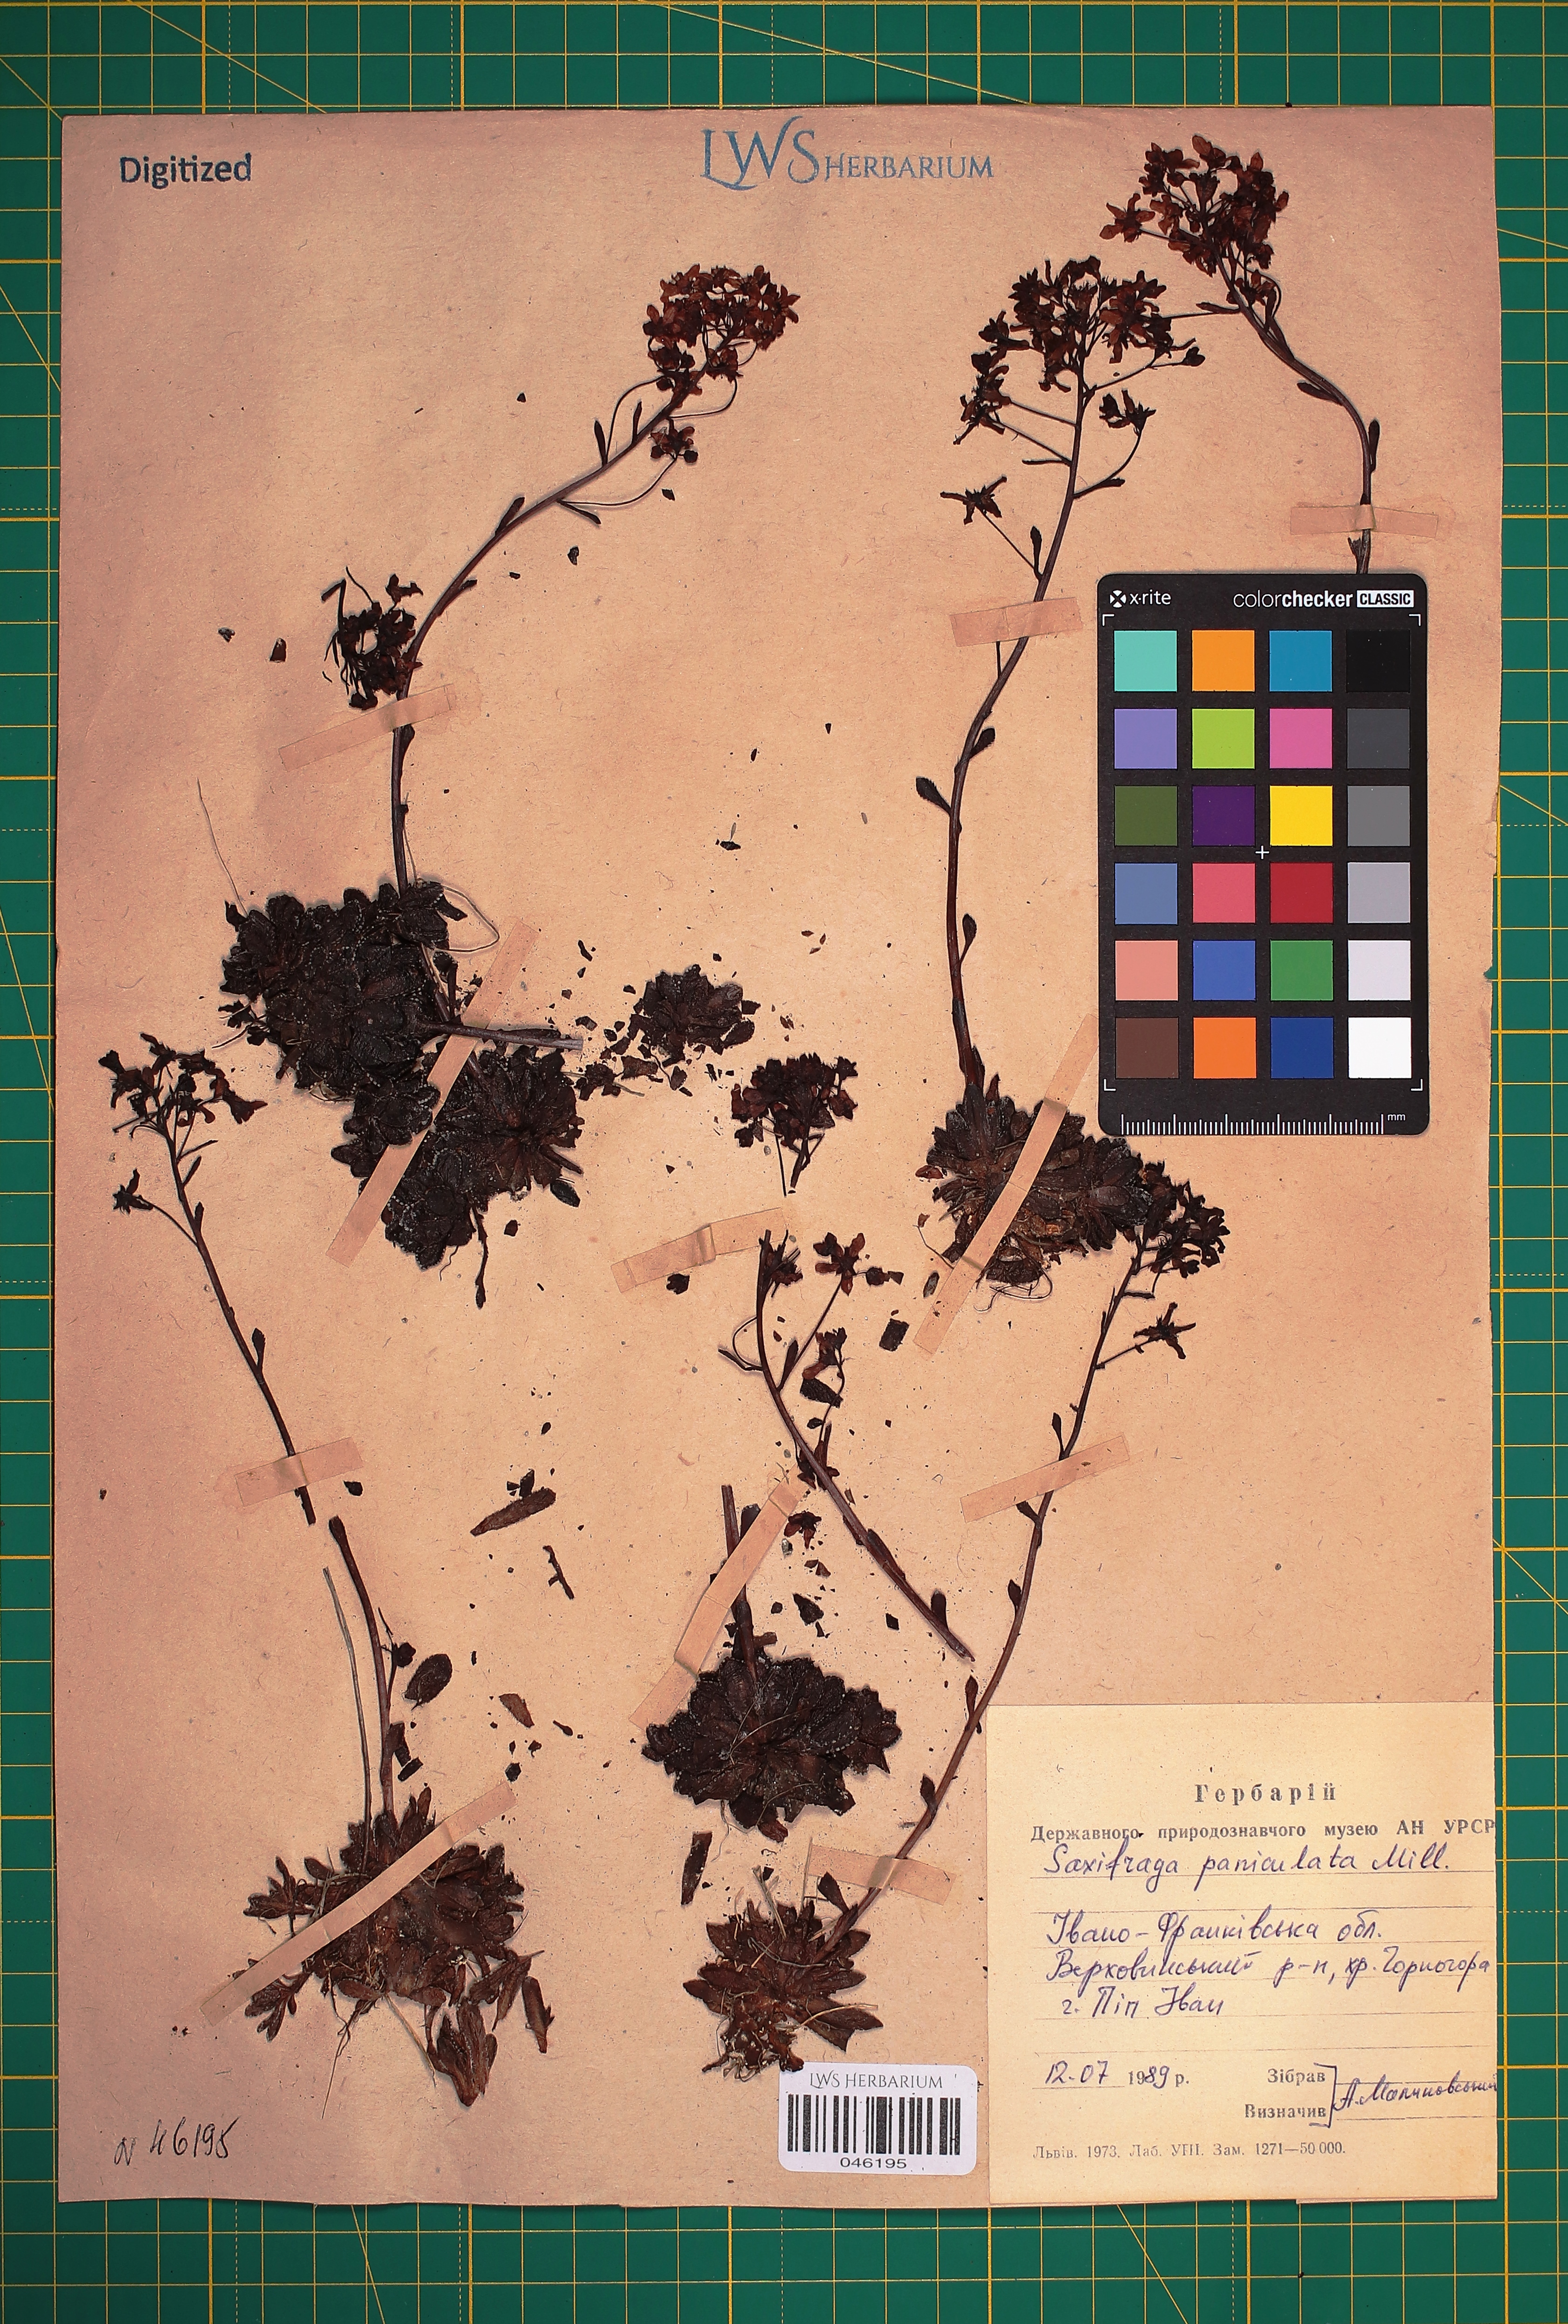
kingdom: Plantae
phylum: Tracheophyta
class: Magnoliopsida
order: Saxifragales
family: Saxifragaceae
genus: Saxifraga
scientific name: Saxifraga paniculata
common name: Livelong saxifrage
